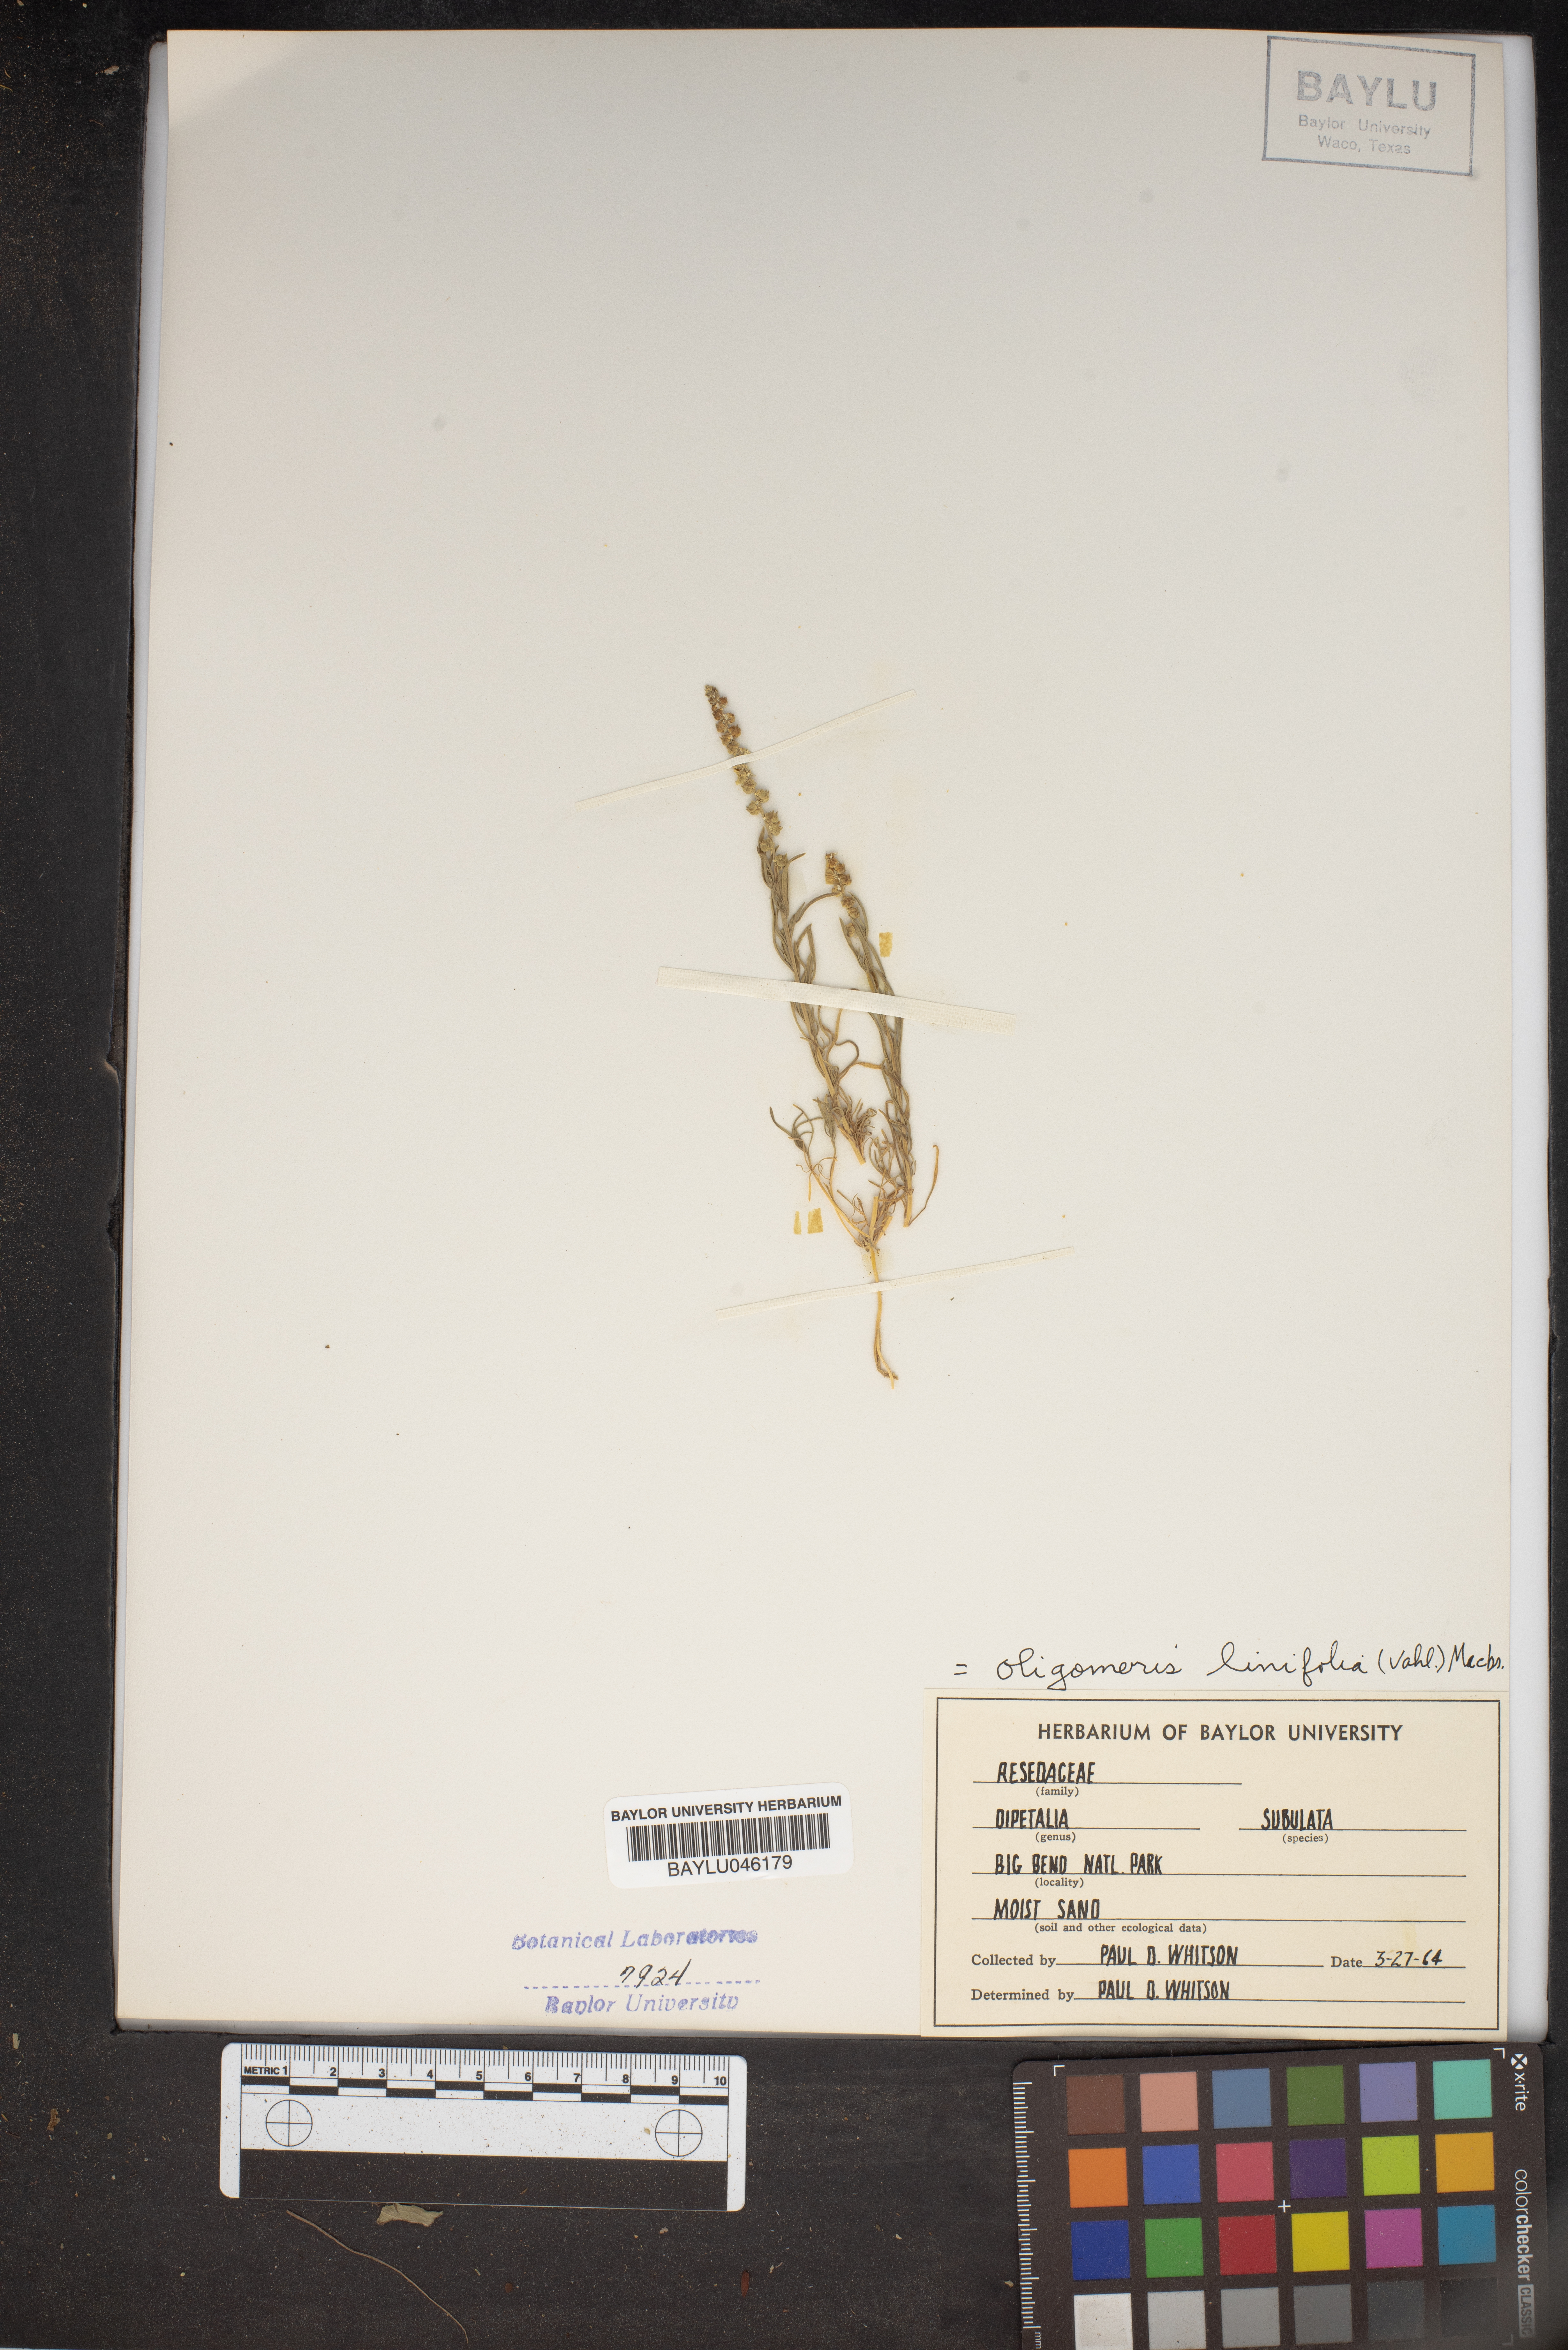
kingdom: Plantae
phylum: Tracheophyta
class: Magnoliopsida
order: Brassicales
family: Resedaceae
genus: Oligomeris
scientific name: Oligomeris linifolia
